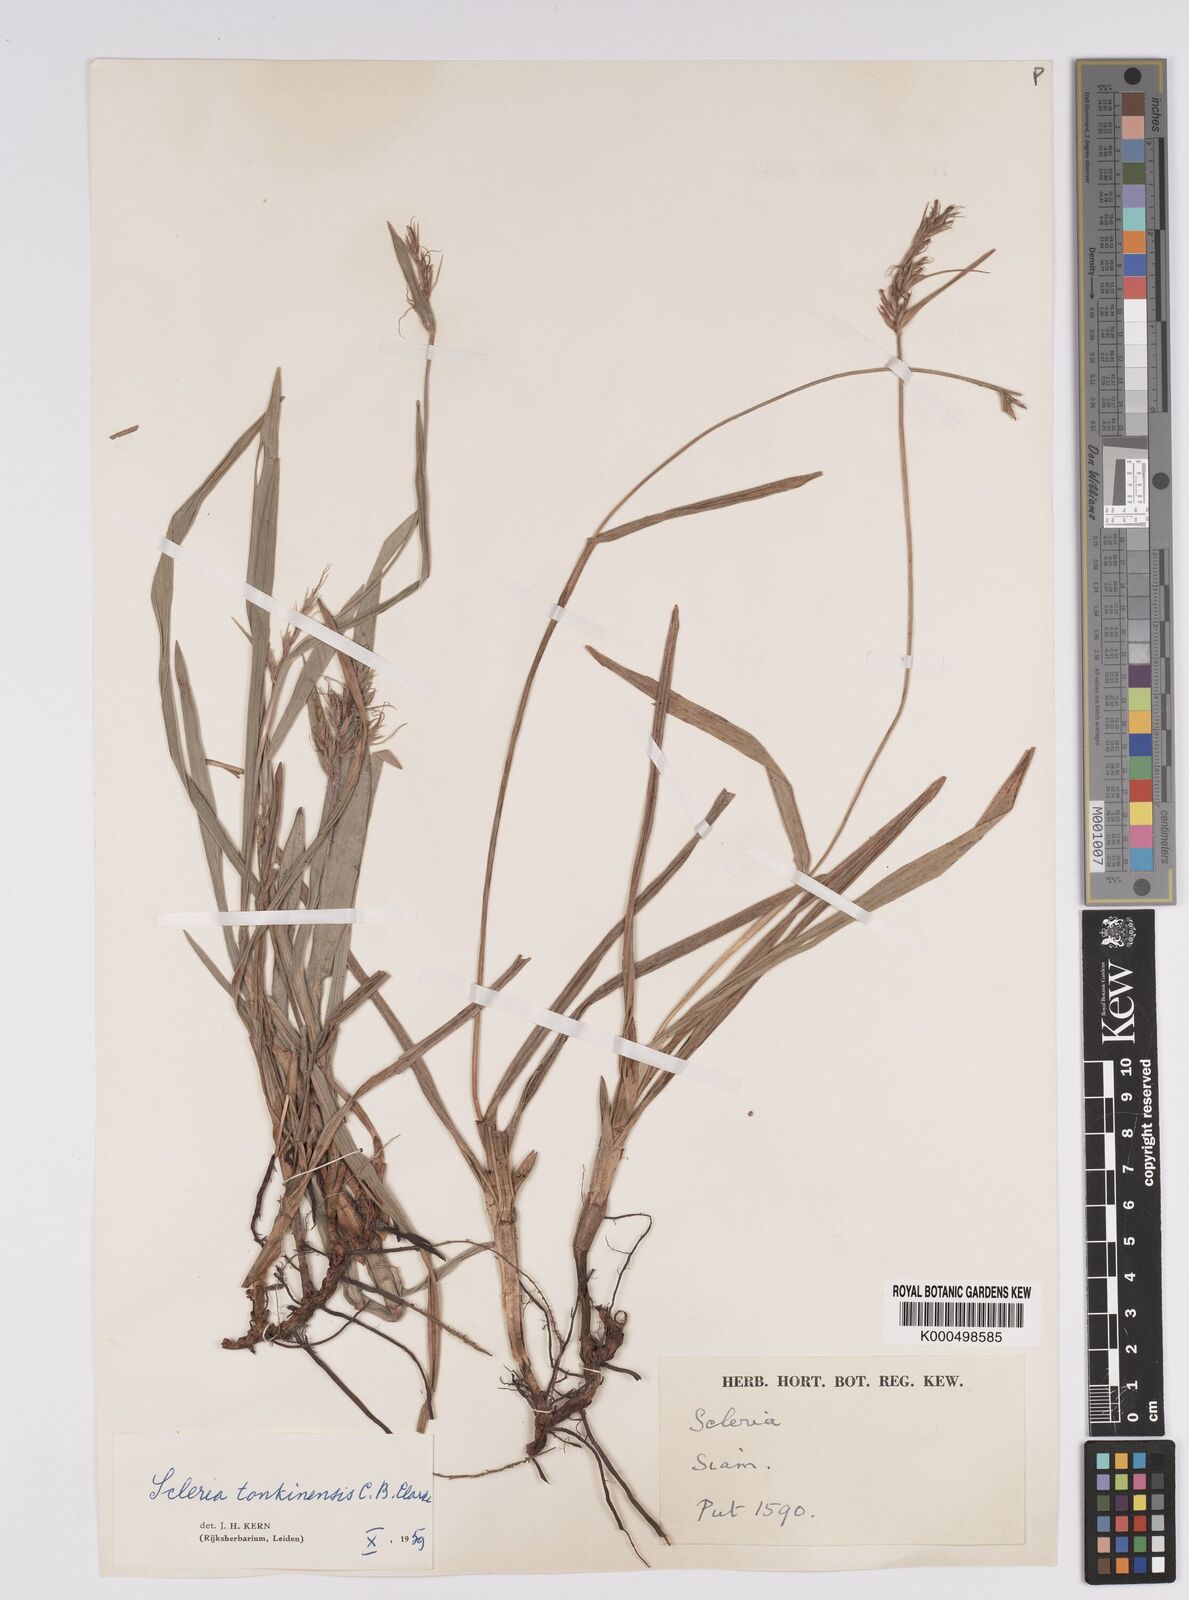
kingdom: Plantae
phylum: Tracheophyta
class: Liliopsida
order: Poales
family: Cyperaceae
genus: Scleria
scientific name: Scleria tonkinensis
